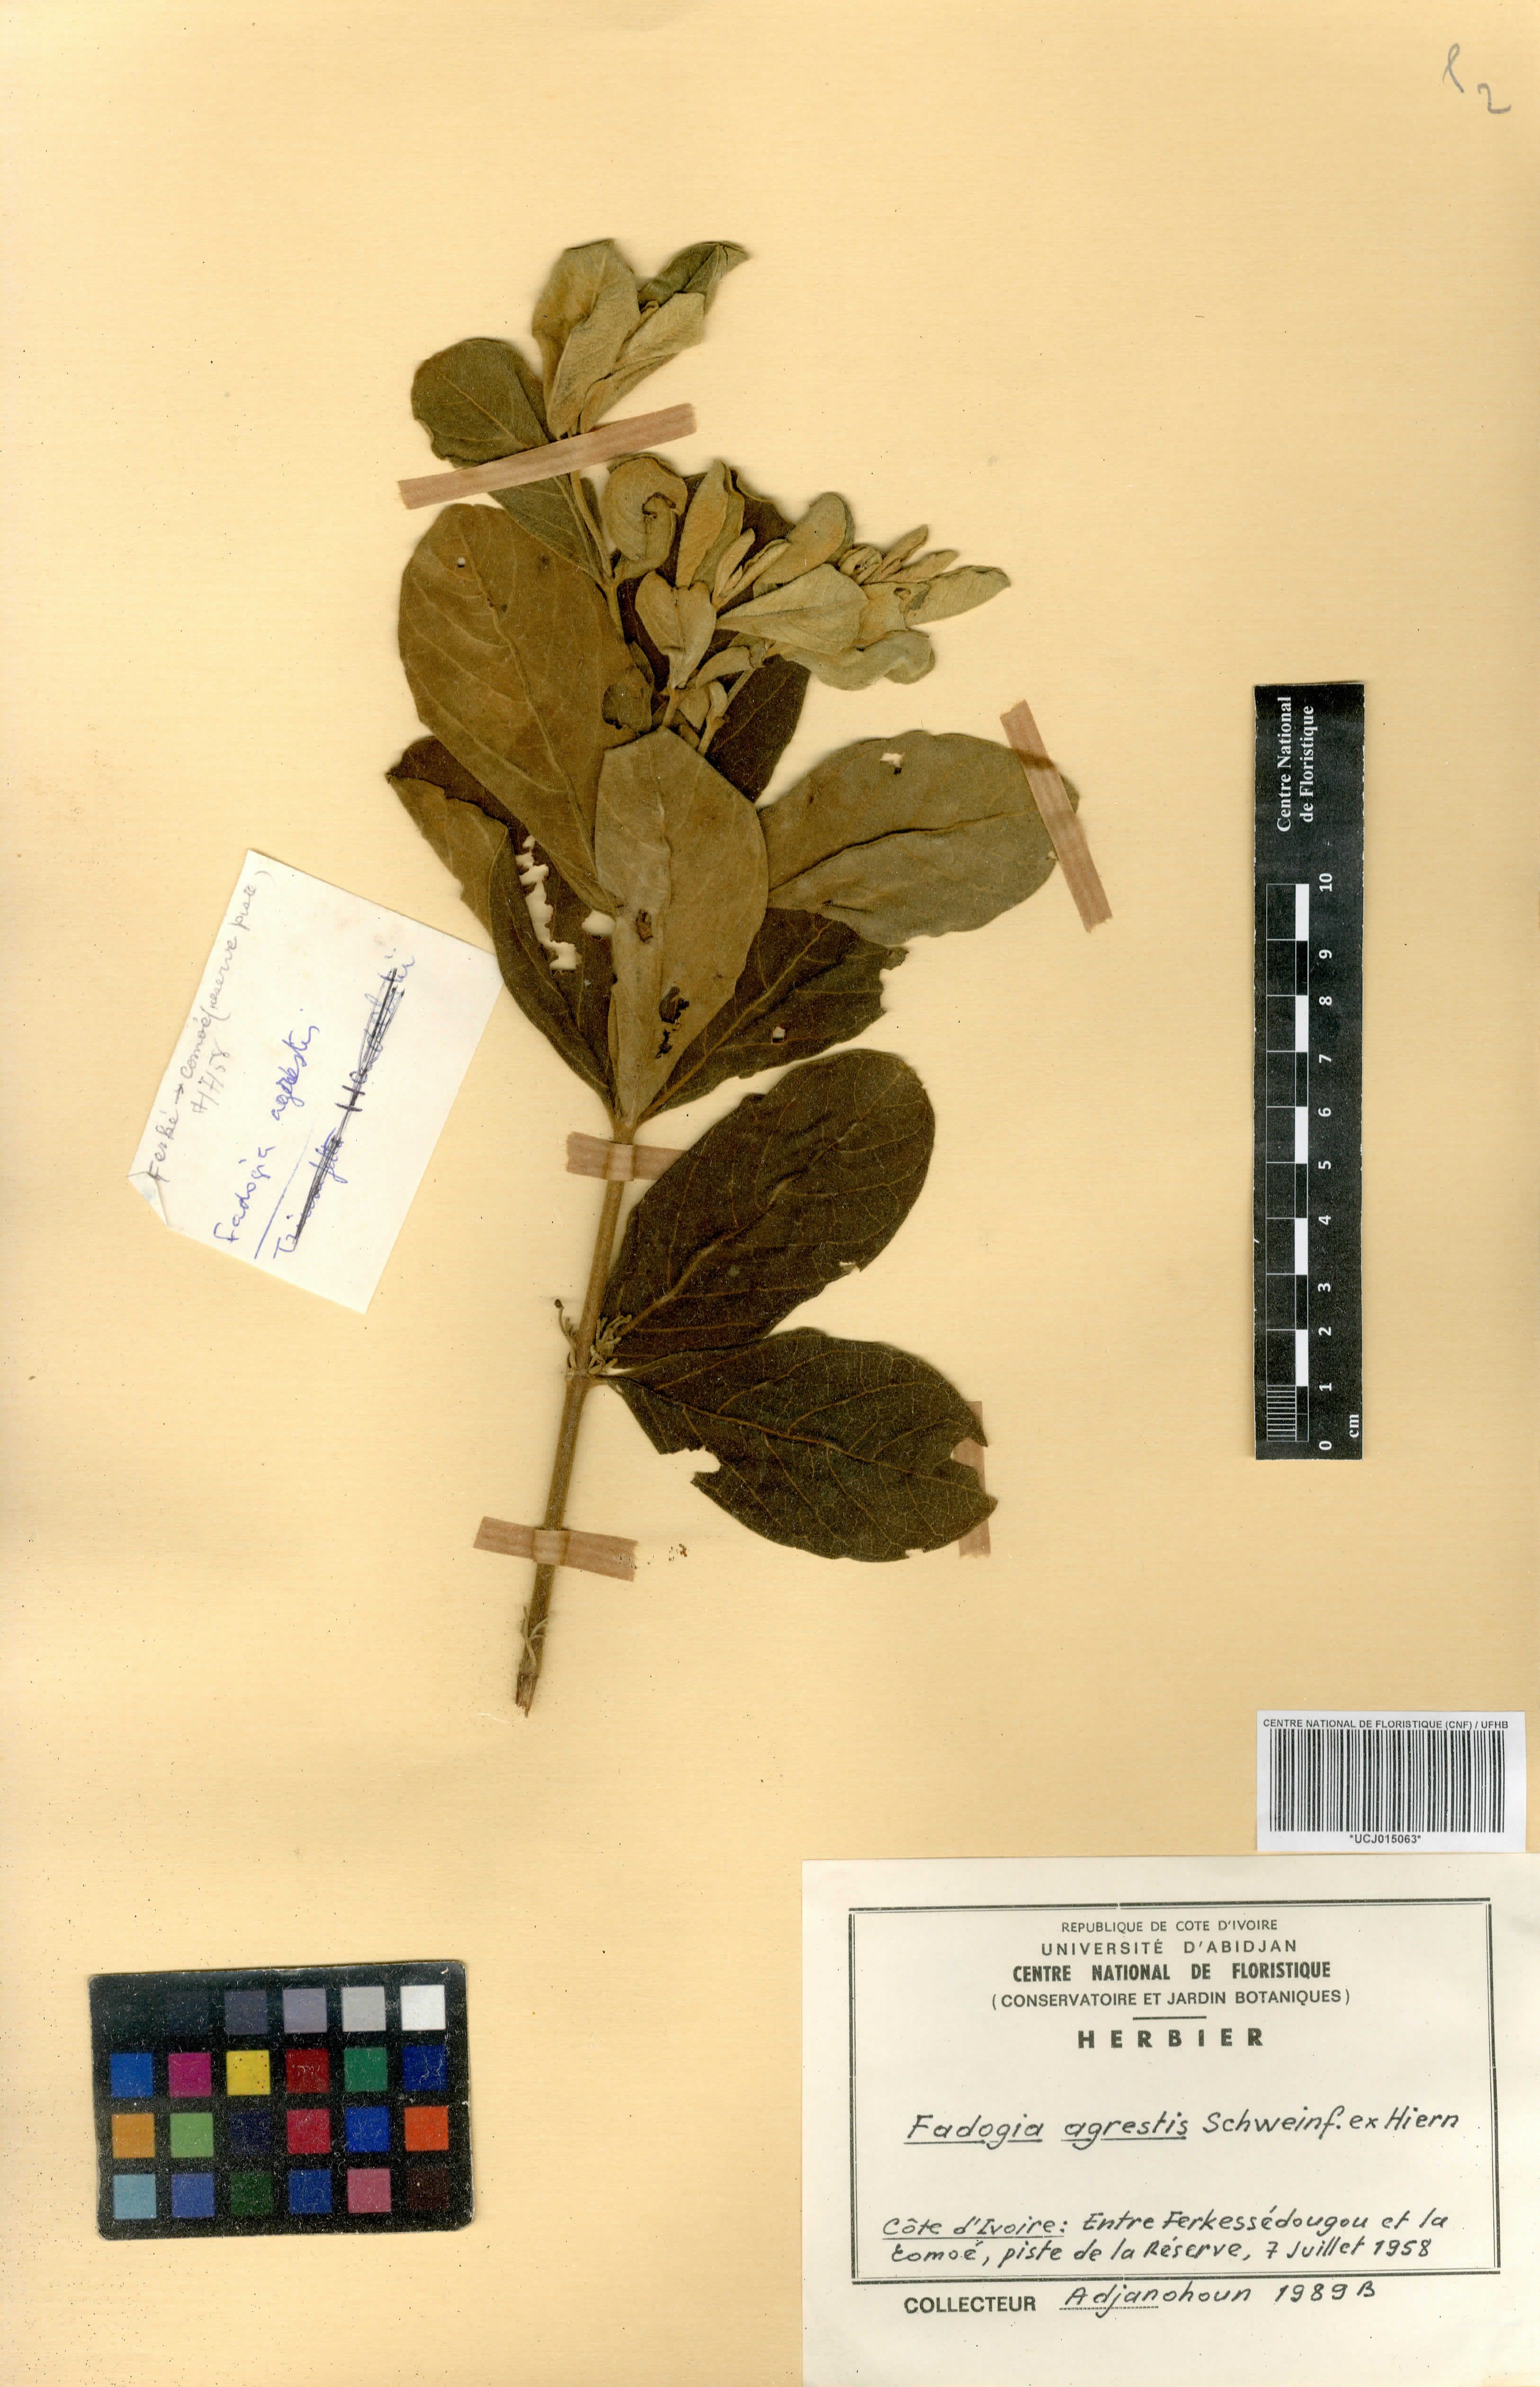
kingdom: Plantae
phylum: Tracheophyta
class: Magnoliopsida
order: Gentianales
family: Rubiaceae
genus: Vangueria
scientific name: Vangueria agrestis
